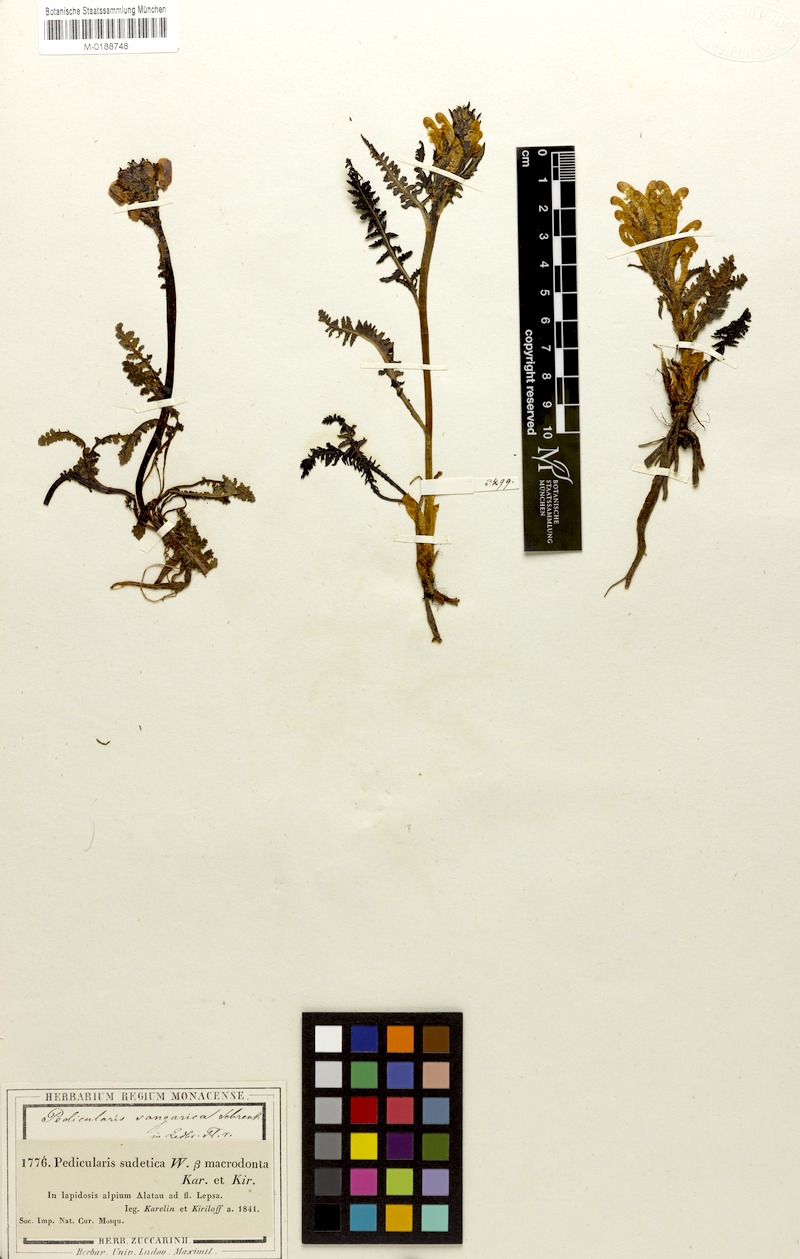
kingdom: Plantae
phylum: Tracheophyta
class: Magnoliopsida
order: Lamiales
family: Orobanchaceae
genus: Pedicularis
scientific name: Pedicularis songarica
